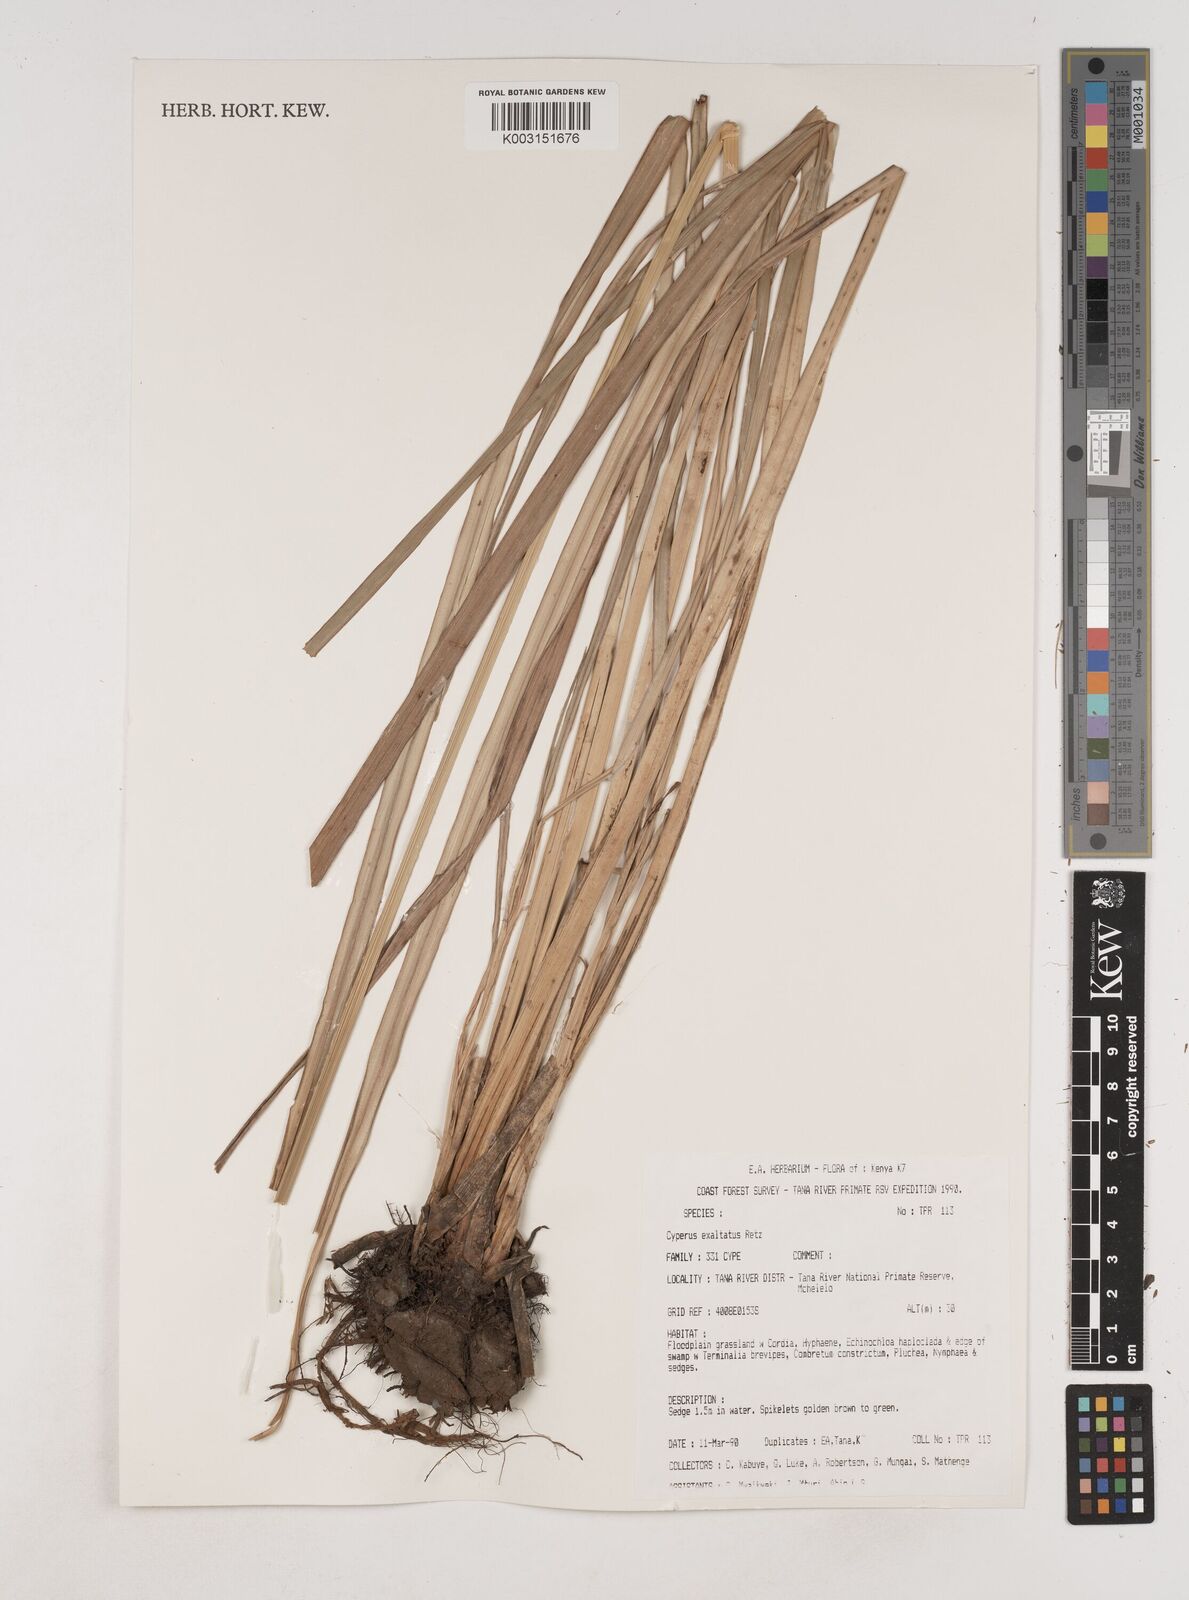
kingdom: Plantae
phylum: Tracheophyta
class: Liliopsida
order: Poales
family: Cyperaceae
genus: Cyperus
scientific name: Cyperus exaltatus
